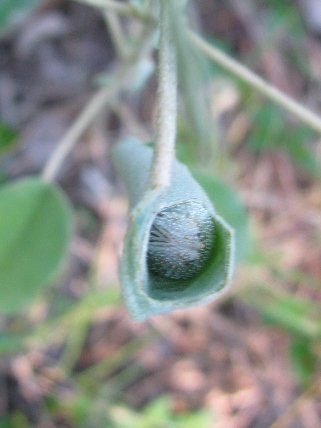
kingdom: Animalia
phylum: Arthropoda
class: Insecta
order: Lepidoptera
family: Nymphalidae
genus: Anaea
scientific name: Anaea andria
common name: Goatweed Leafwing
